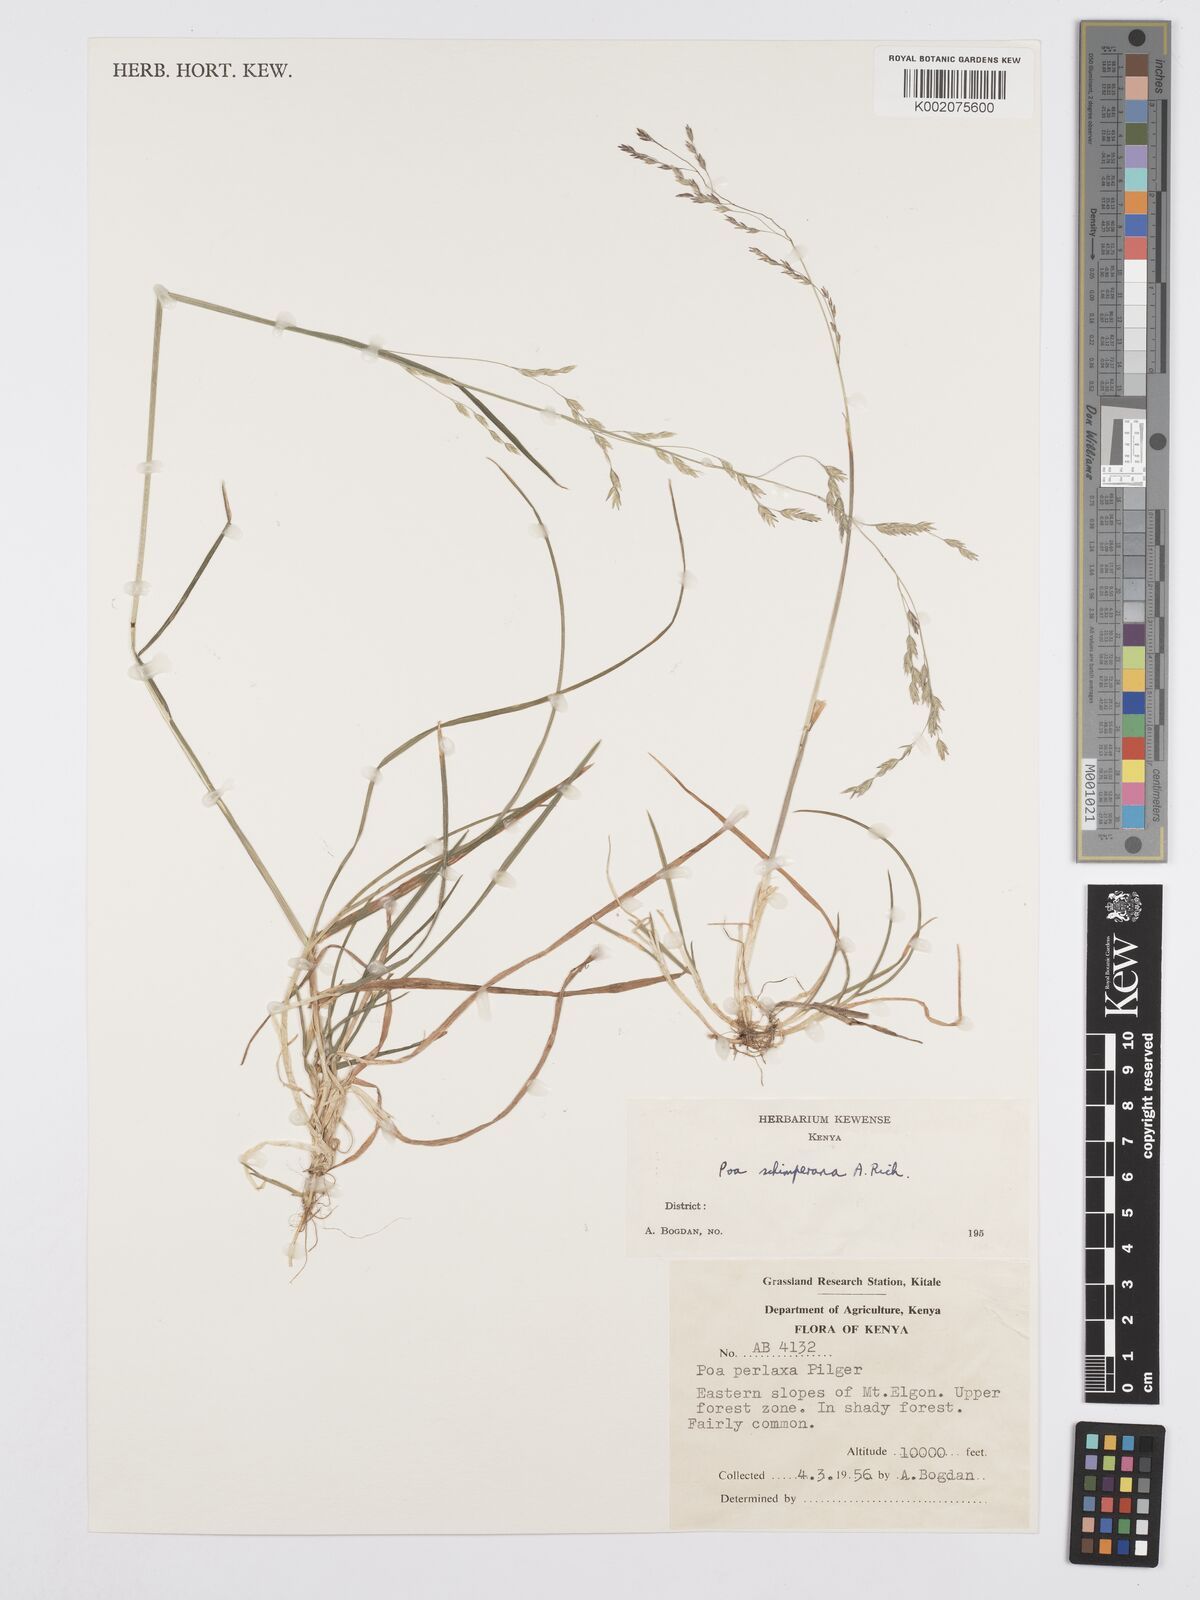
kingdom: Plantae
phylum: Tracheophyta
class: Liliopsida
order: Poales
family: Poaceae
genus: Poa
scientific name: Poa schimperiana
